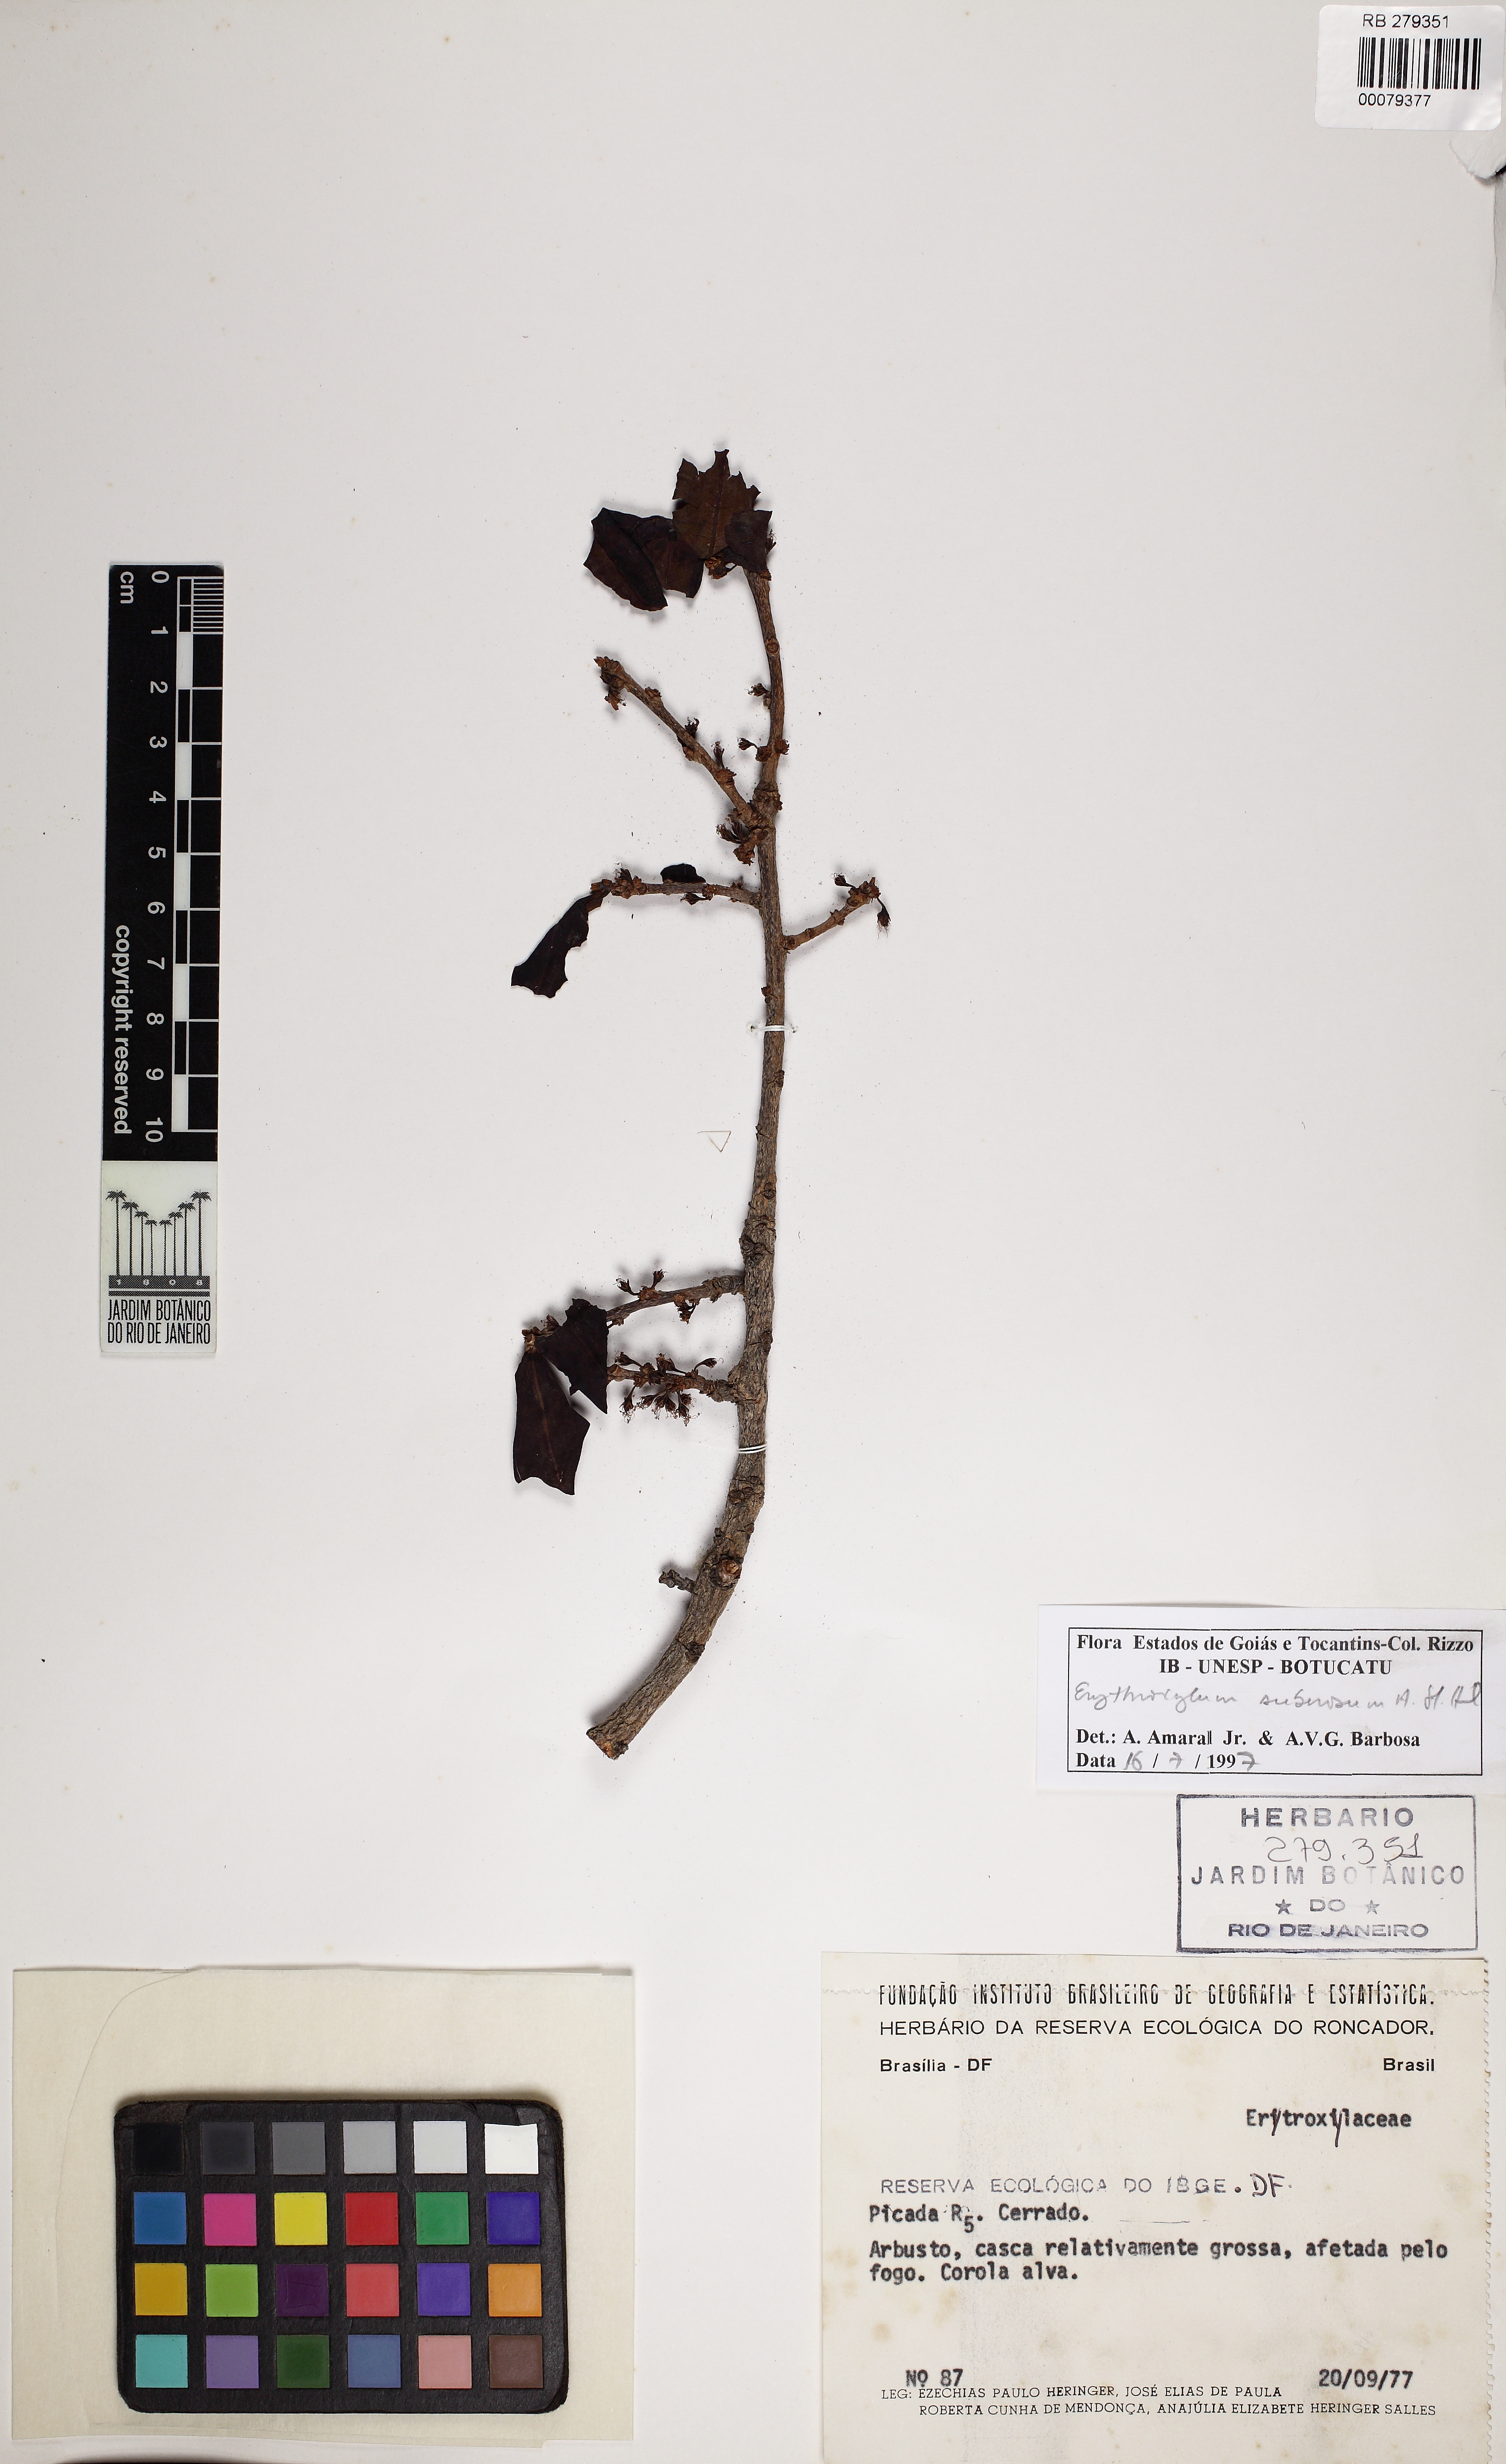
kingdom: Plantae
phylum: Tracheophyta
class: Magnoliopsida
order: Malpighiales
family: Erythroxylaceae
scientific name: Erythroxylaceae
